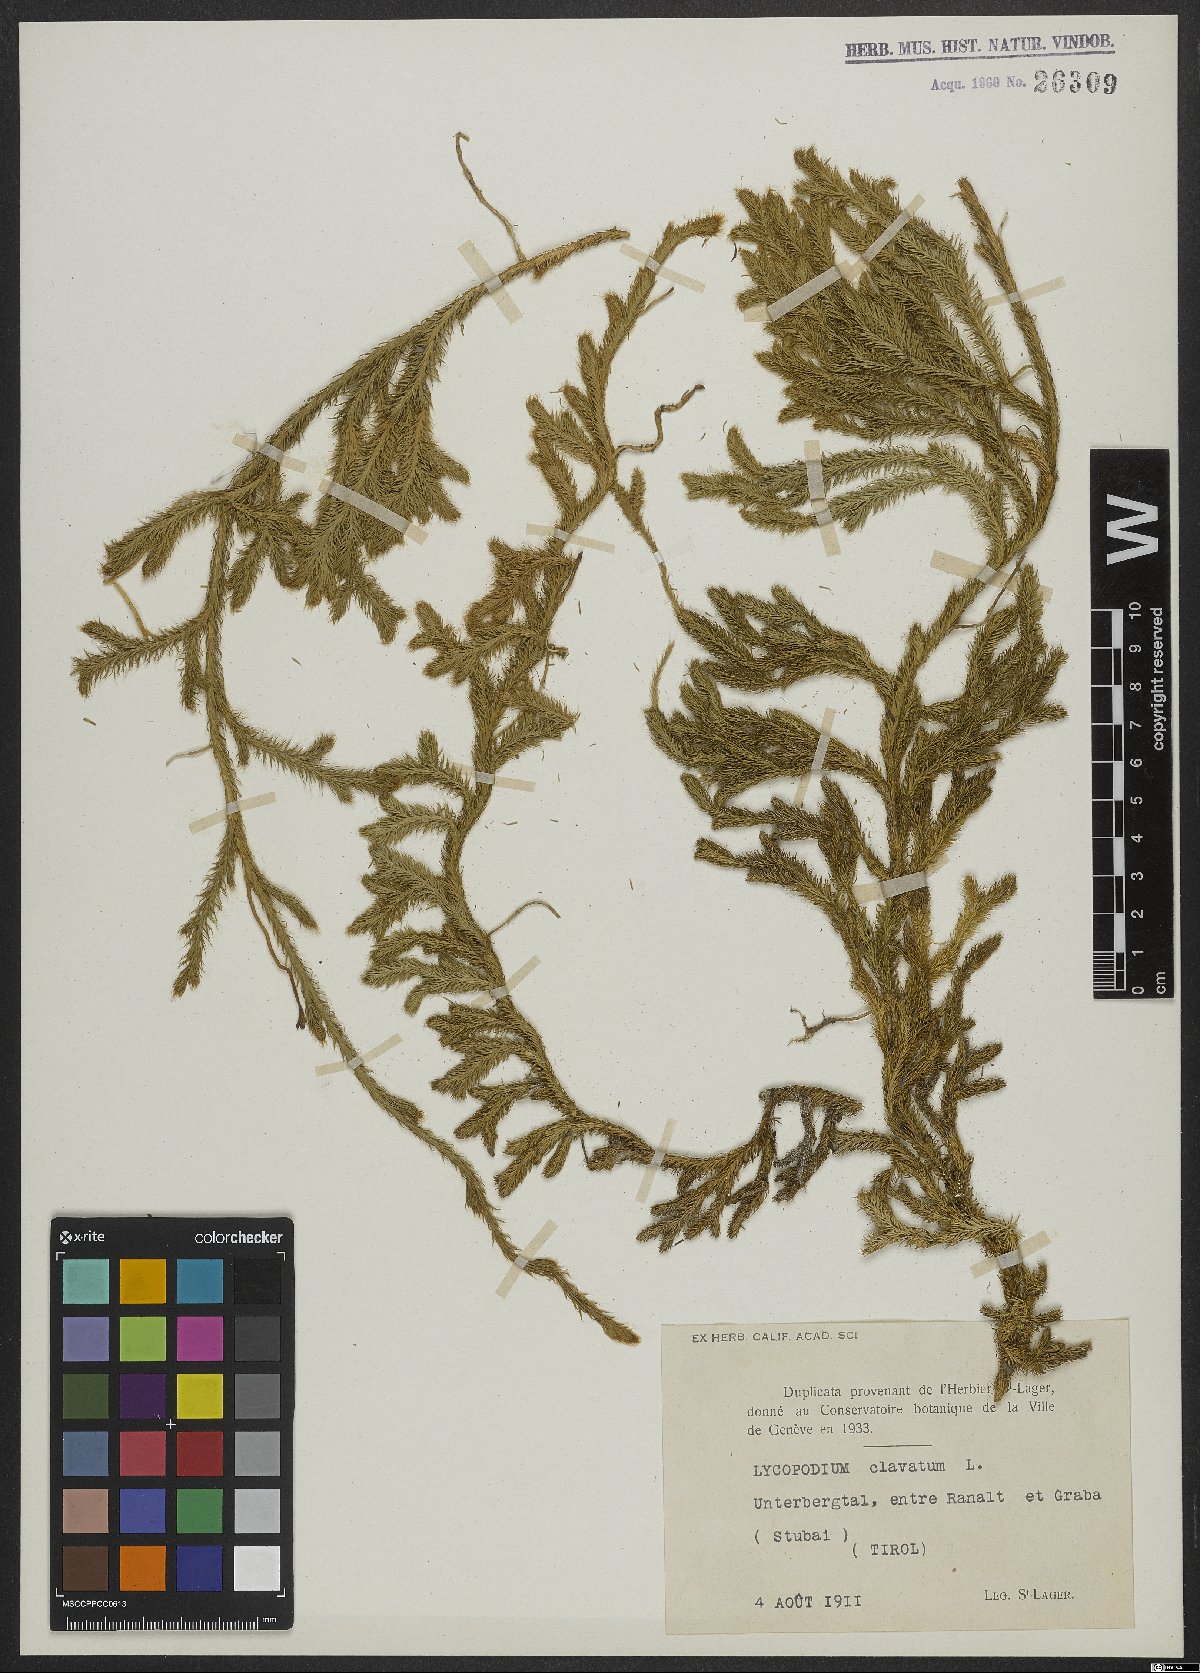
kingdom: Plantae
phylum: Tracheophyta
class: Lycopodiopsida
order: Lycopodiales
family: Lycopodiaceae
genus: Lycopodium
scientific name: Lycopodium clavatum
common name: Stag's-horn clubmoss
